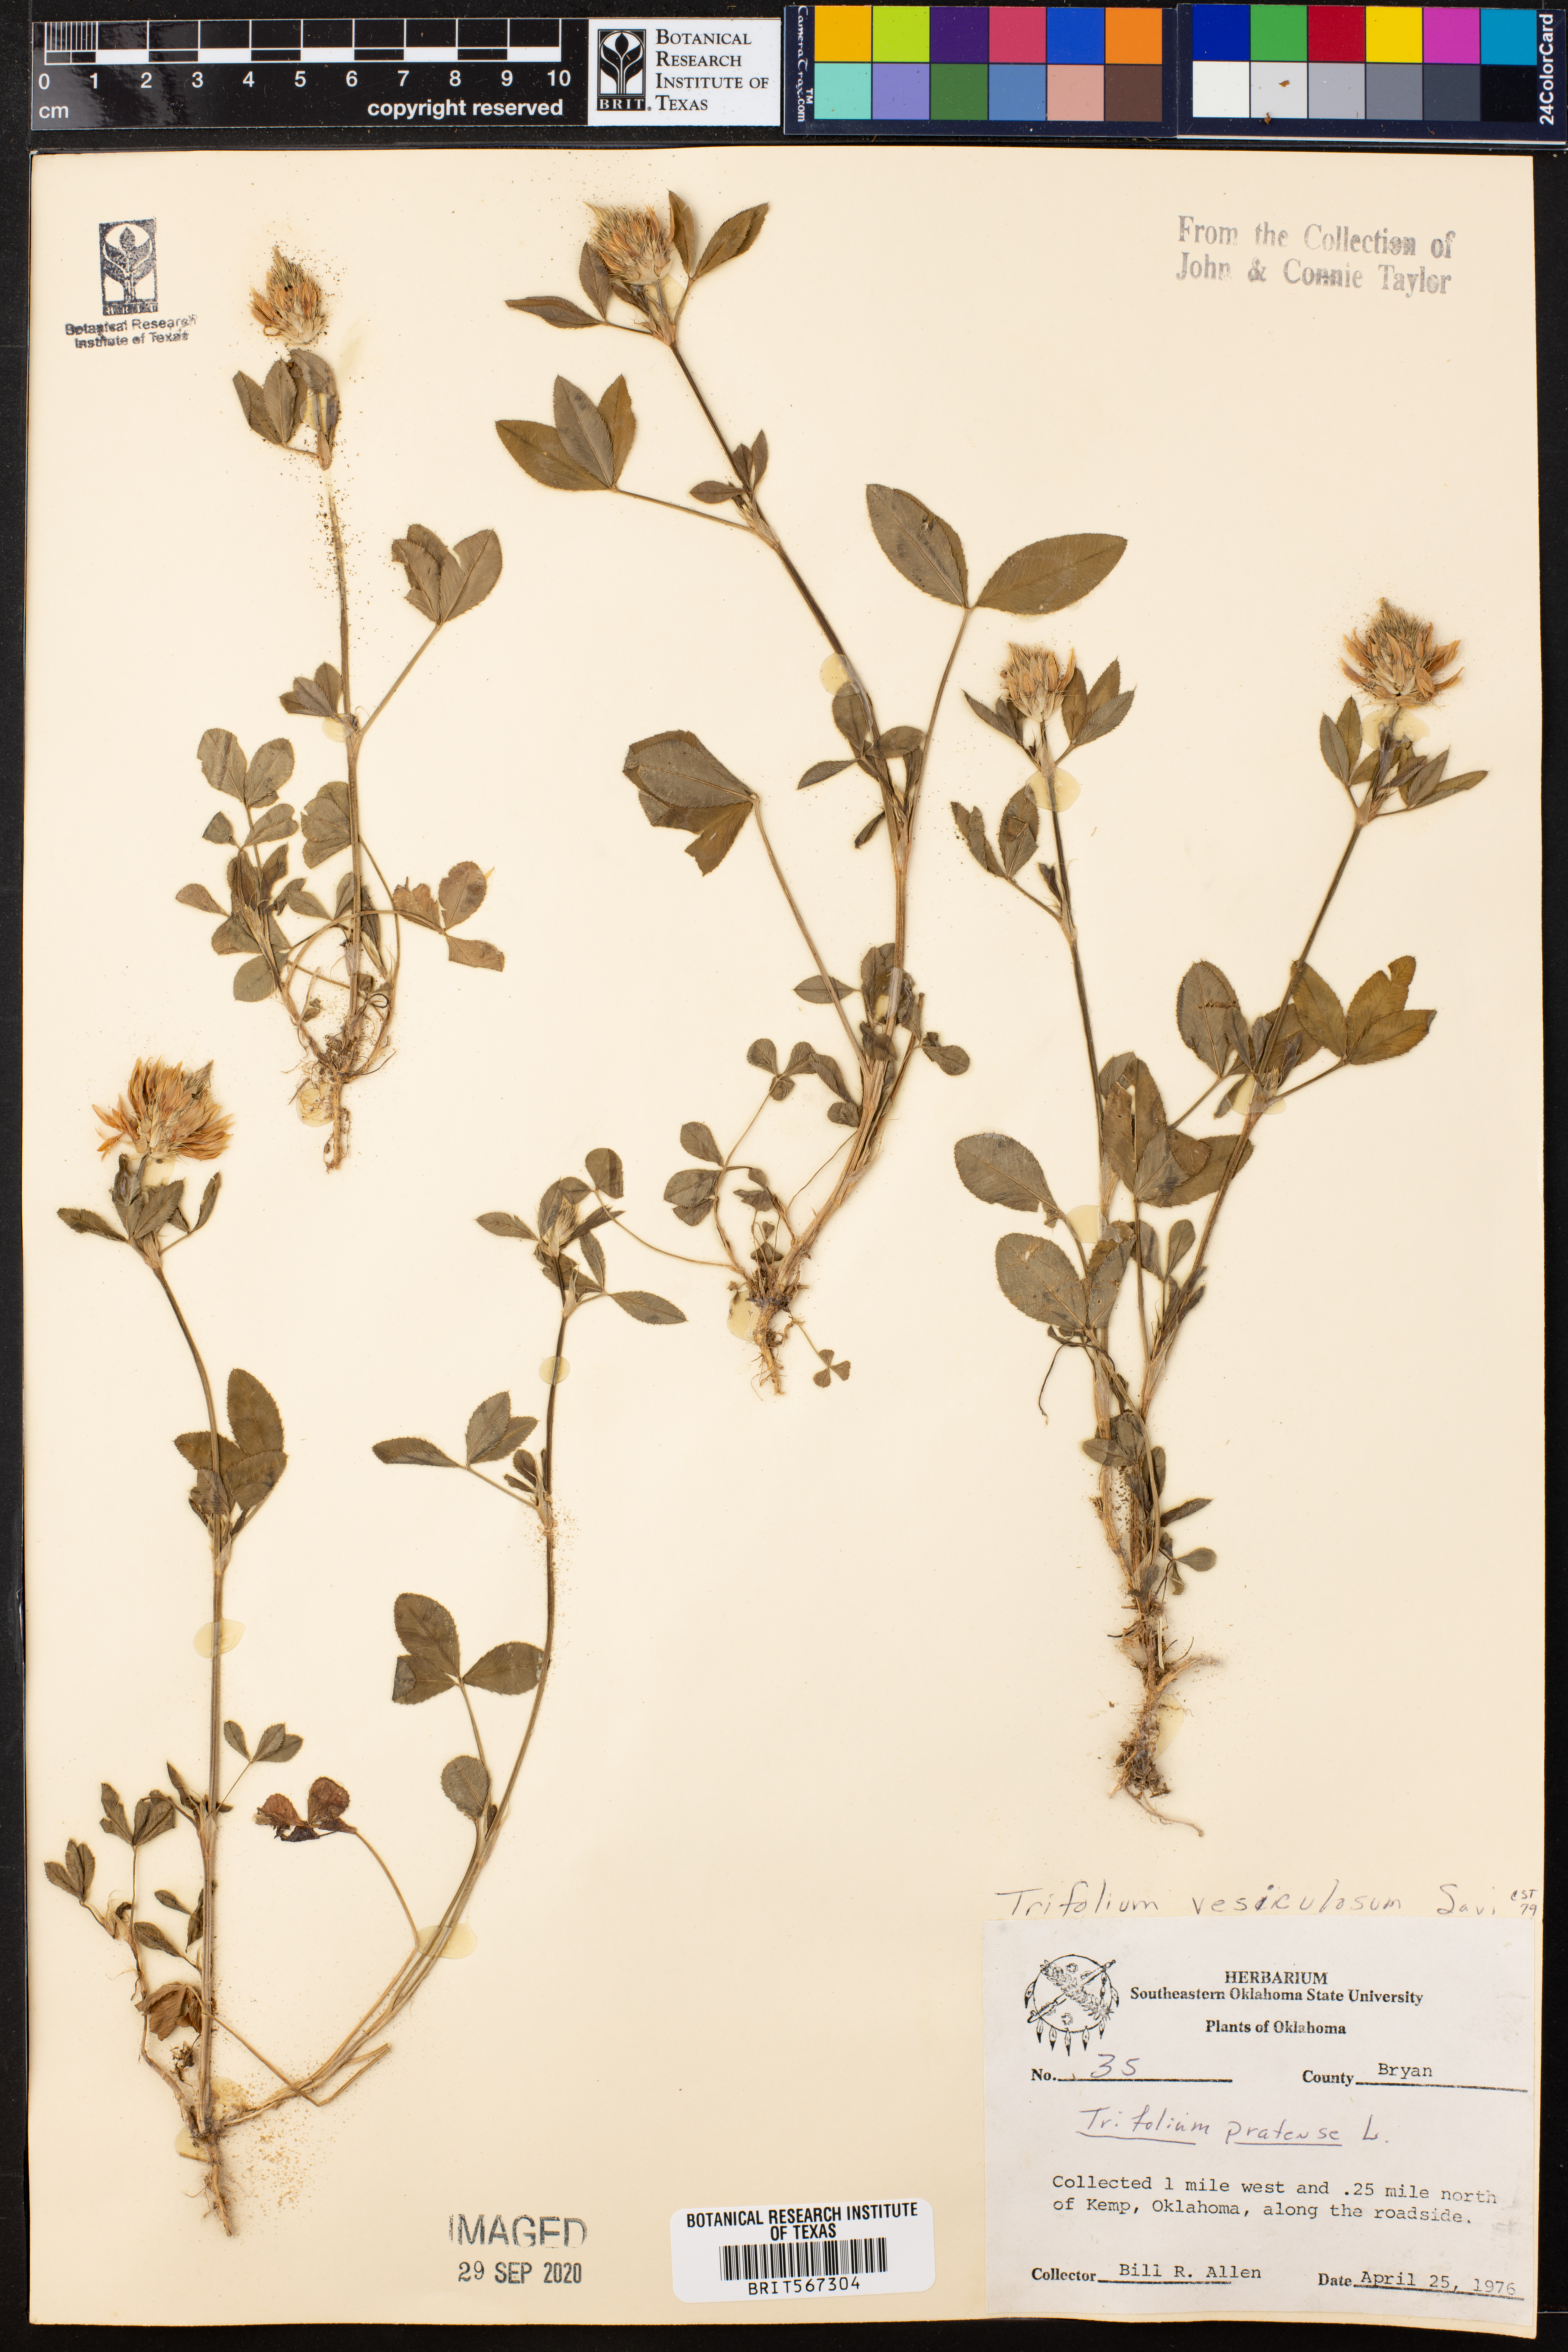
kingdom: Plantae
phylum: Tracheophyta
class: Magnoliopsida
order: Fabales
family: Fabaceae
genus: Trifolium
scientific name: Trifolium vesiculosum
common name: Arrowleaf clover
